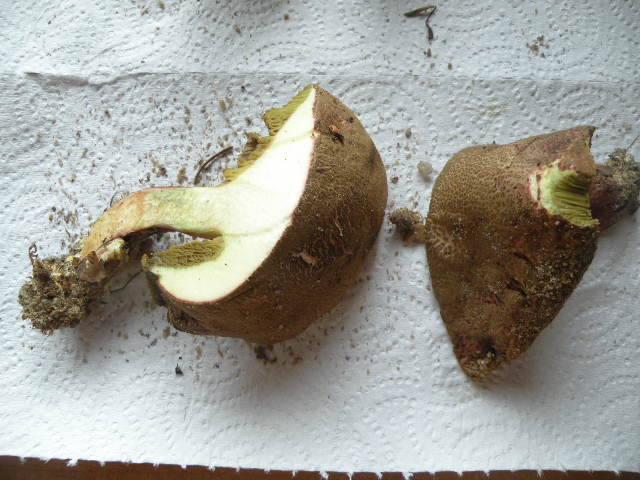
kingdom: Fungi
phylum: Basidiomycota
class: Agaricomycetes
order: Boletales
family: Boletaceae
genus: Xerocomellus
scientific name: Xerocomellus chrysenteron
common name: rødsprukken rørhat
